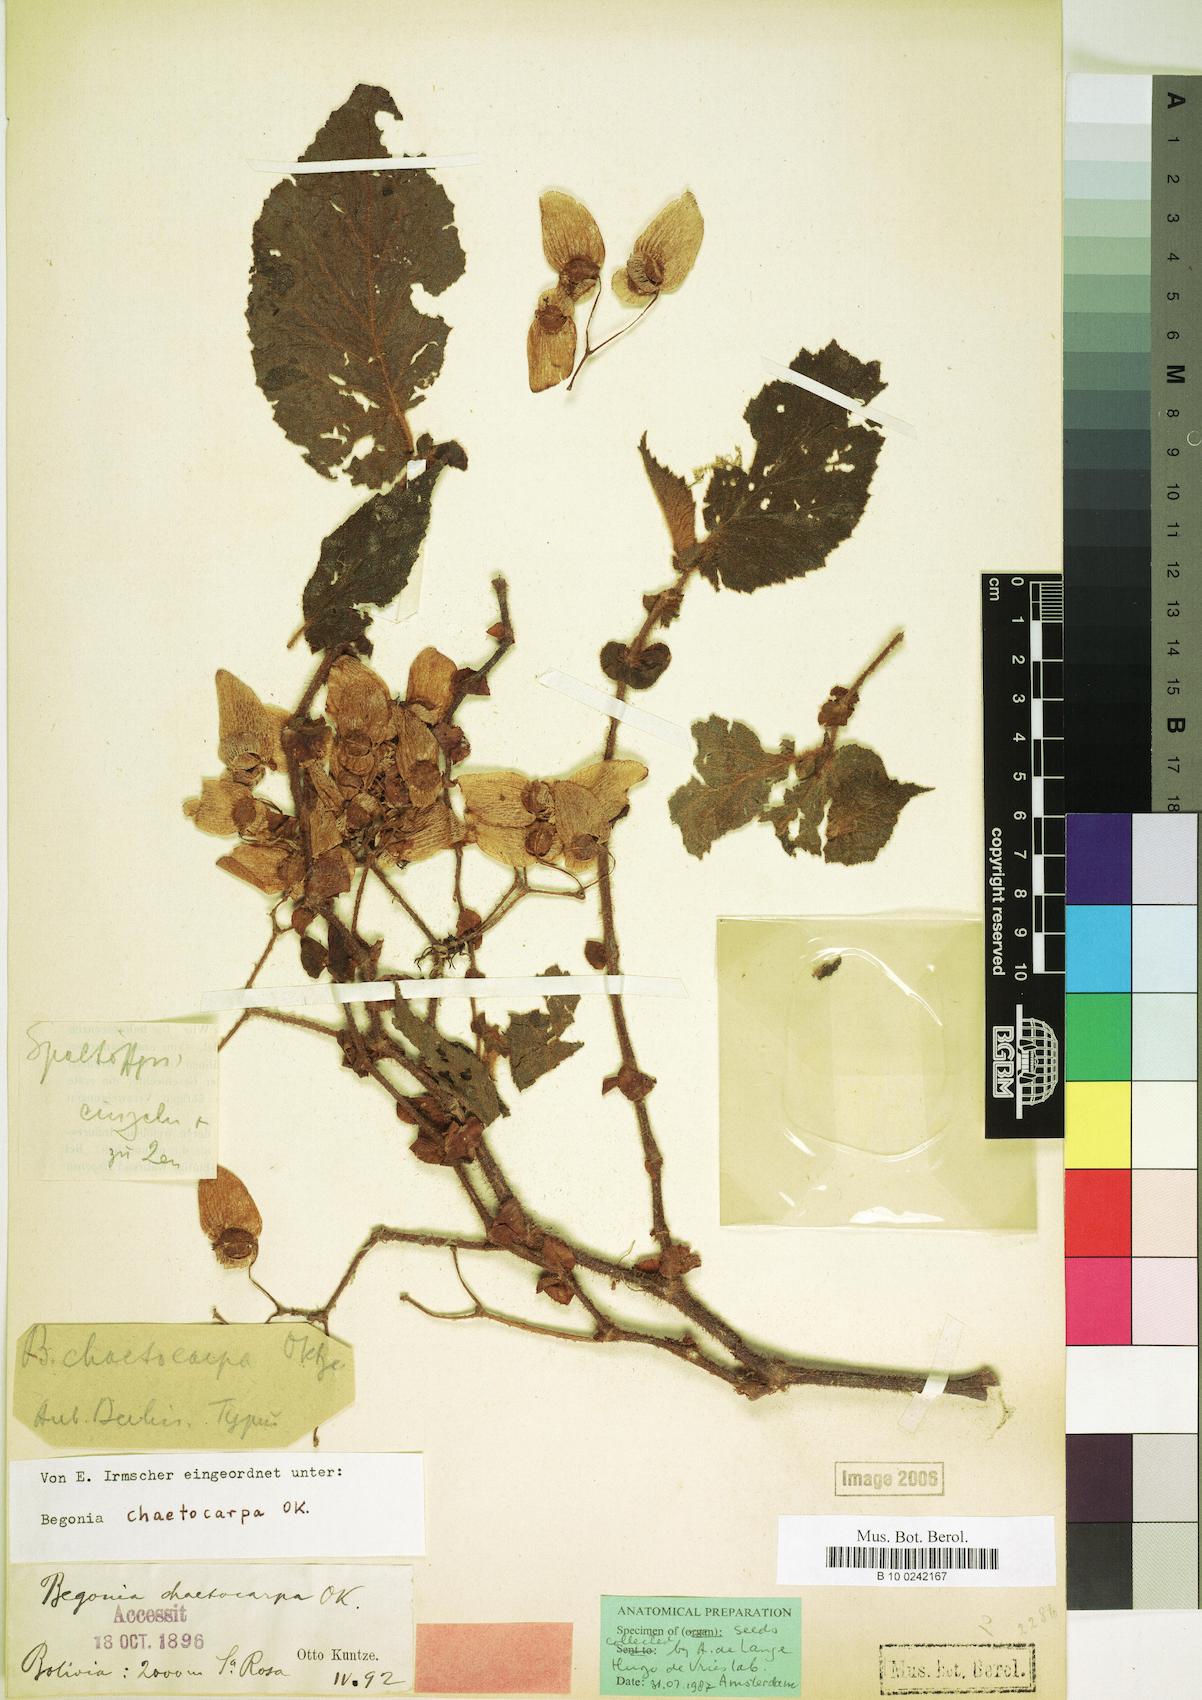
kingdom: Plantae
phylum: Tracheophyta
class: Magnoliopsida
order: Cucurbitales
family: Begoniaceae
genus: Begonia
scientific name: Begonia chaetocarpa
